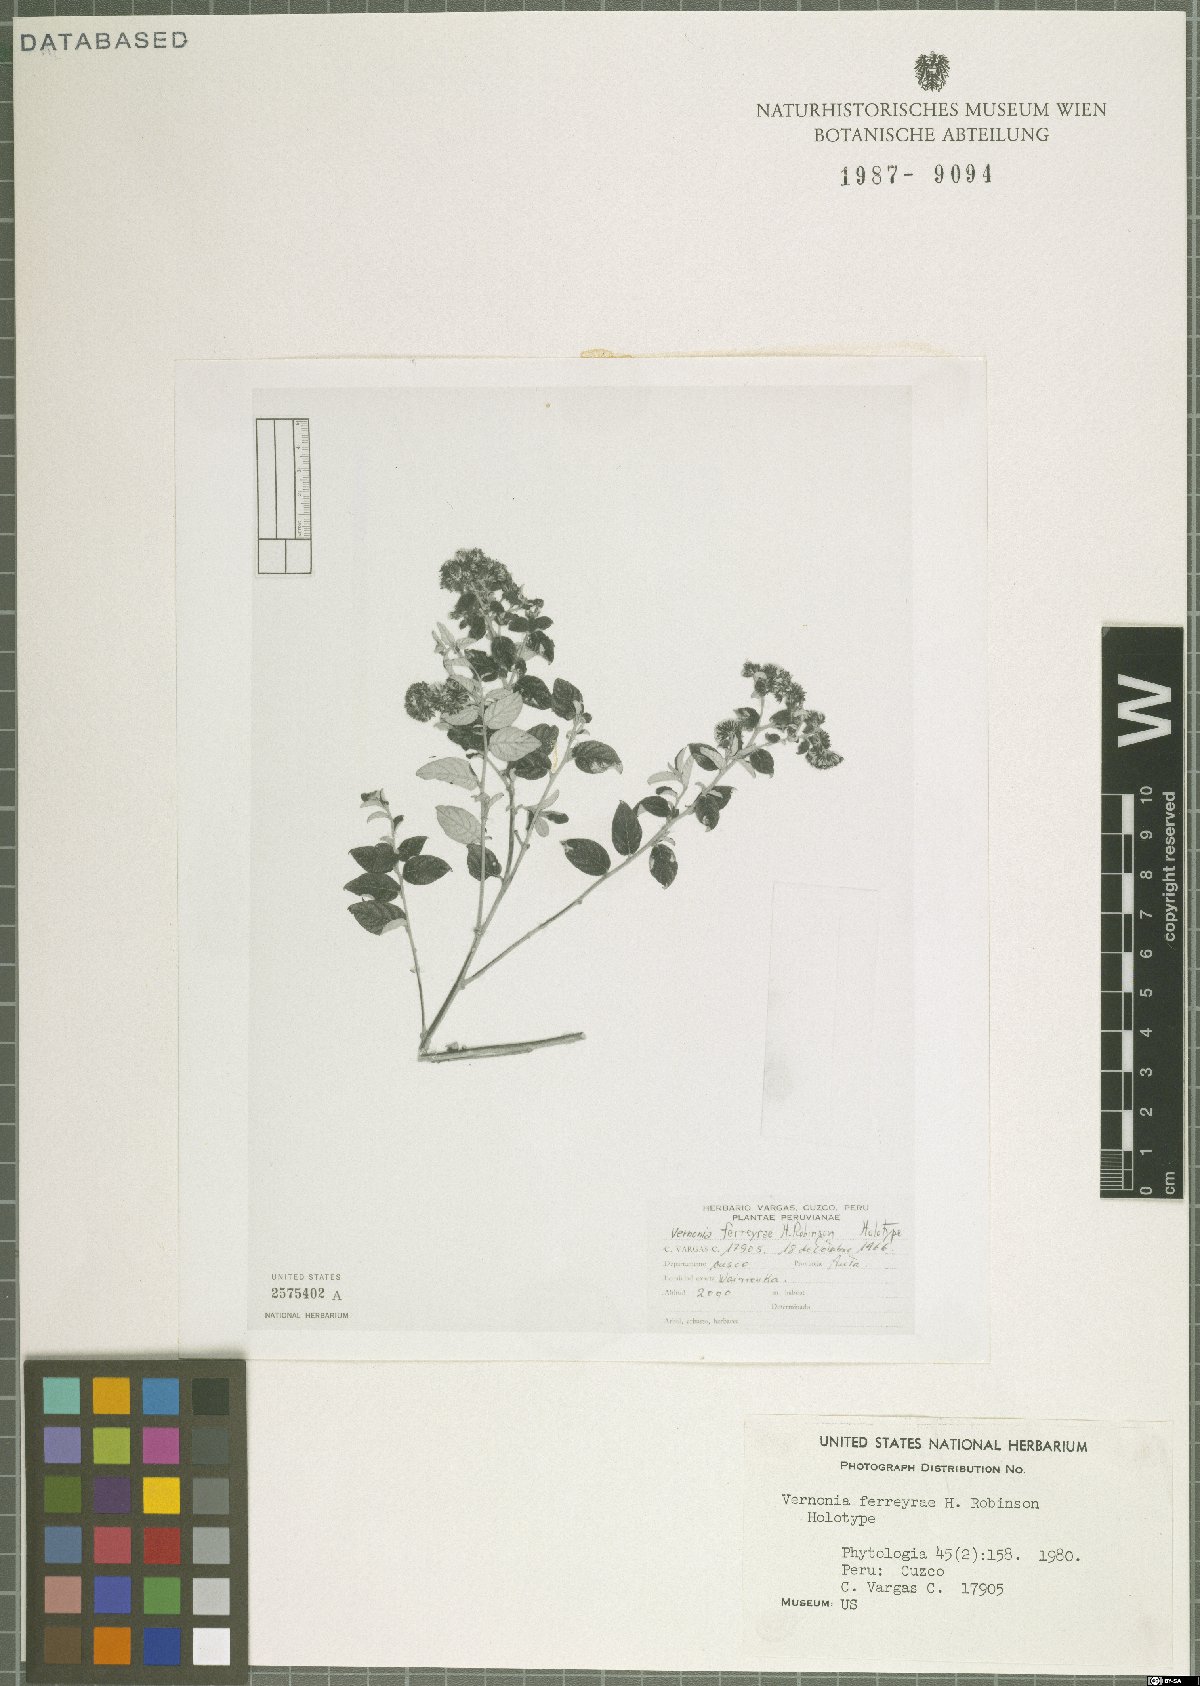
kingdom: Plantae
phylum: Tracheophyta
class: Magnoliopsida
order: Asterales
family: Asteraceae
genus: Lepidaploa
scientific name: Lepidaploa ferreyrae
